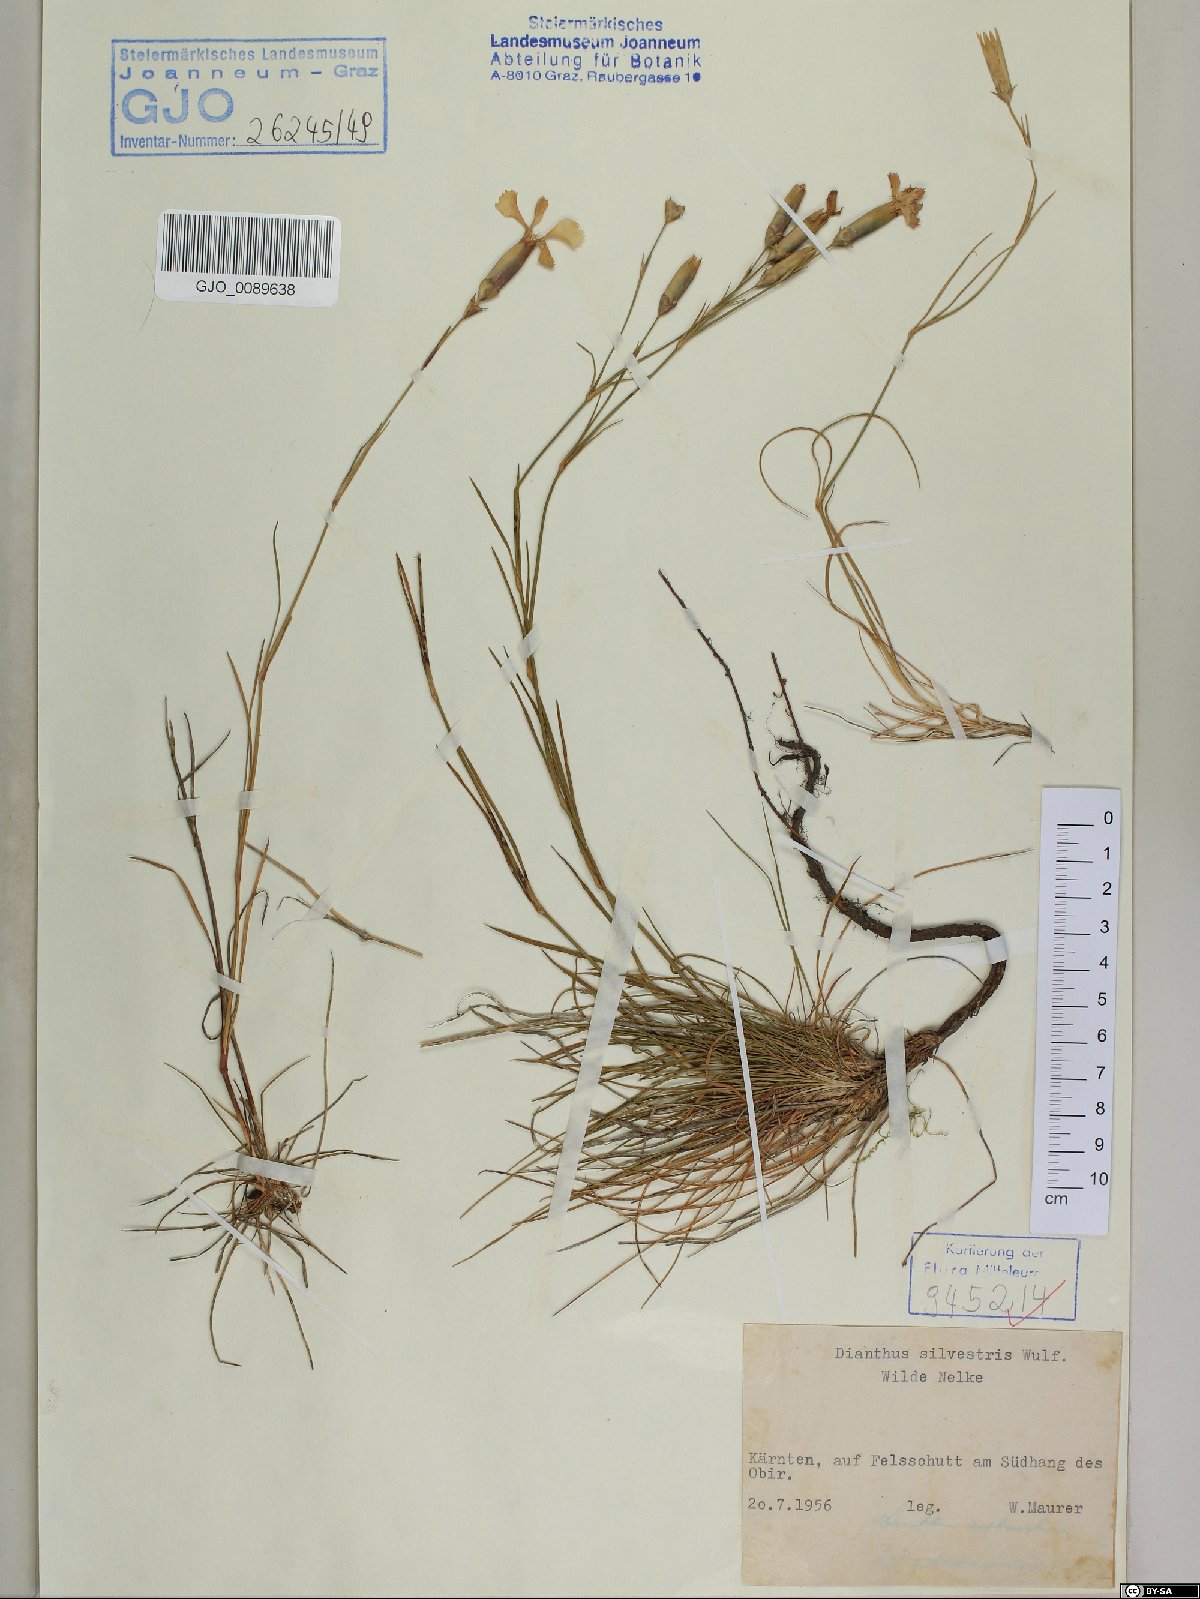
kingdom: Plantae
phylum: Tracheophyta
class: Magnoliopsida
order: Caryophyllales
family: Caryophyllaceae
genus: Dianthus
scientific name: Dianthus sylvestris
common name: Wood pink
